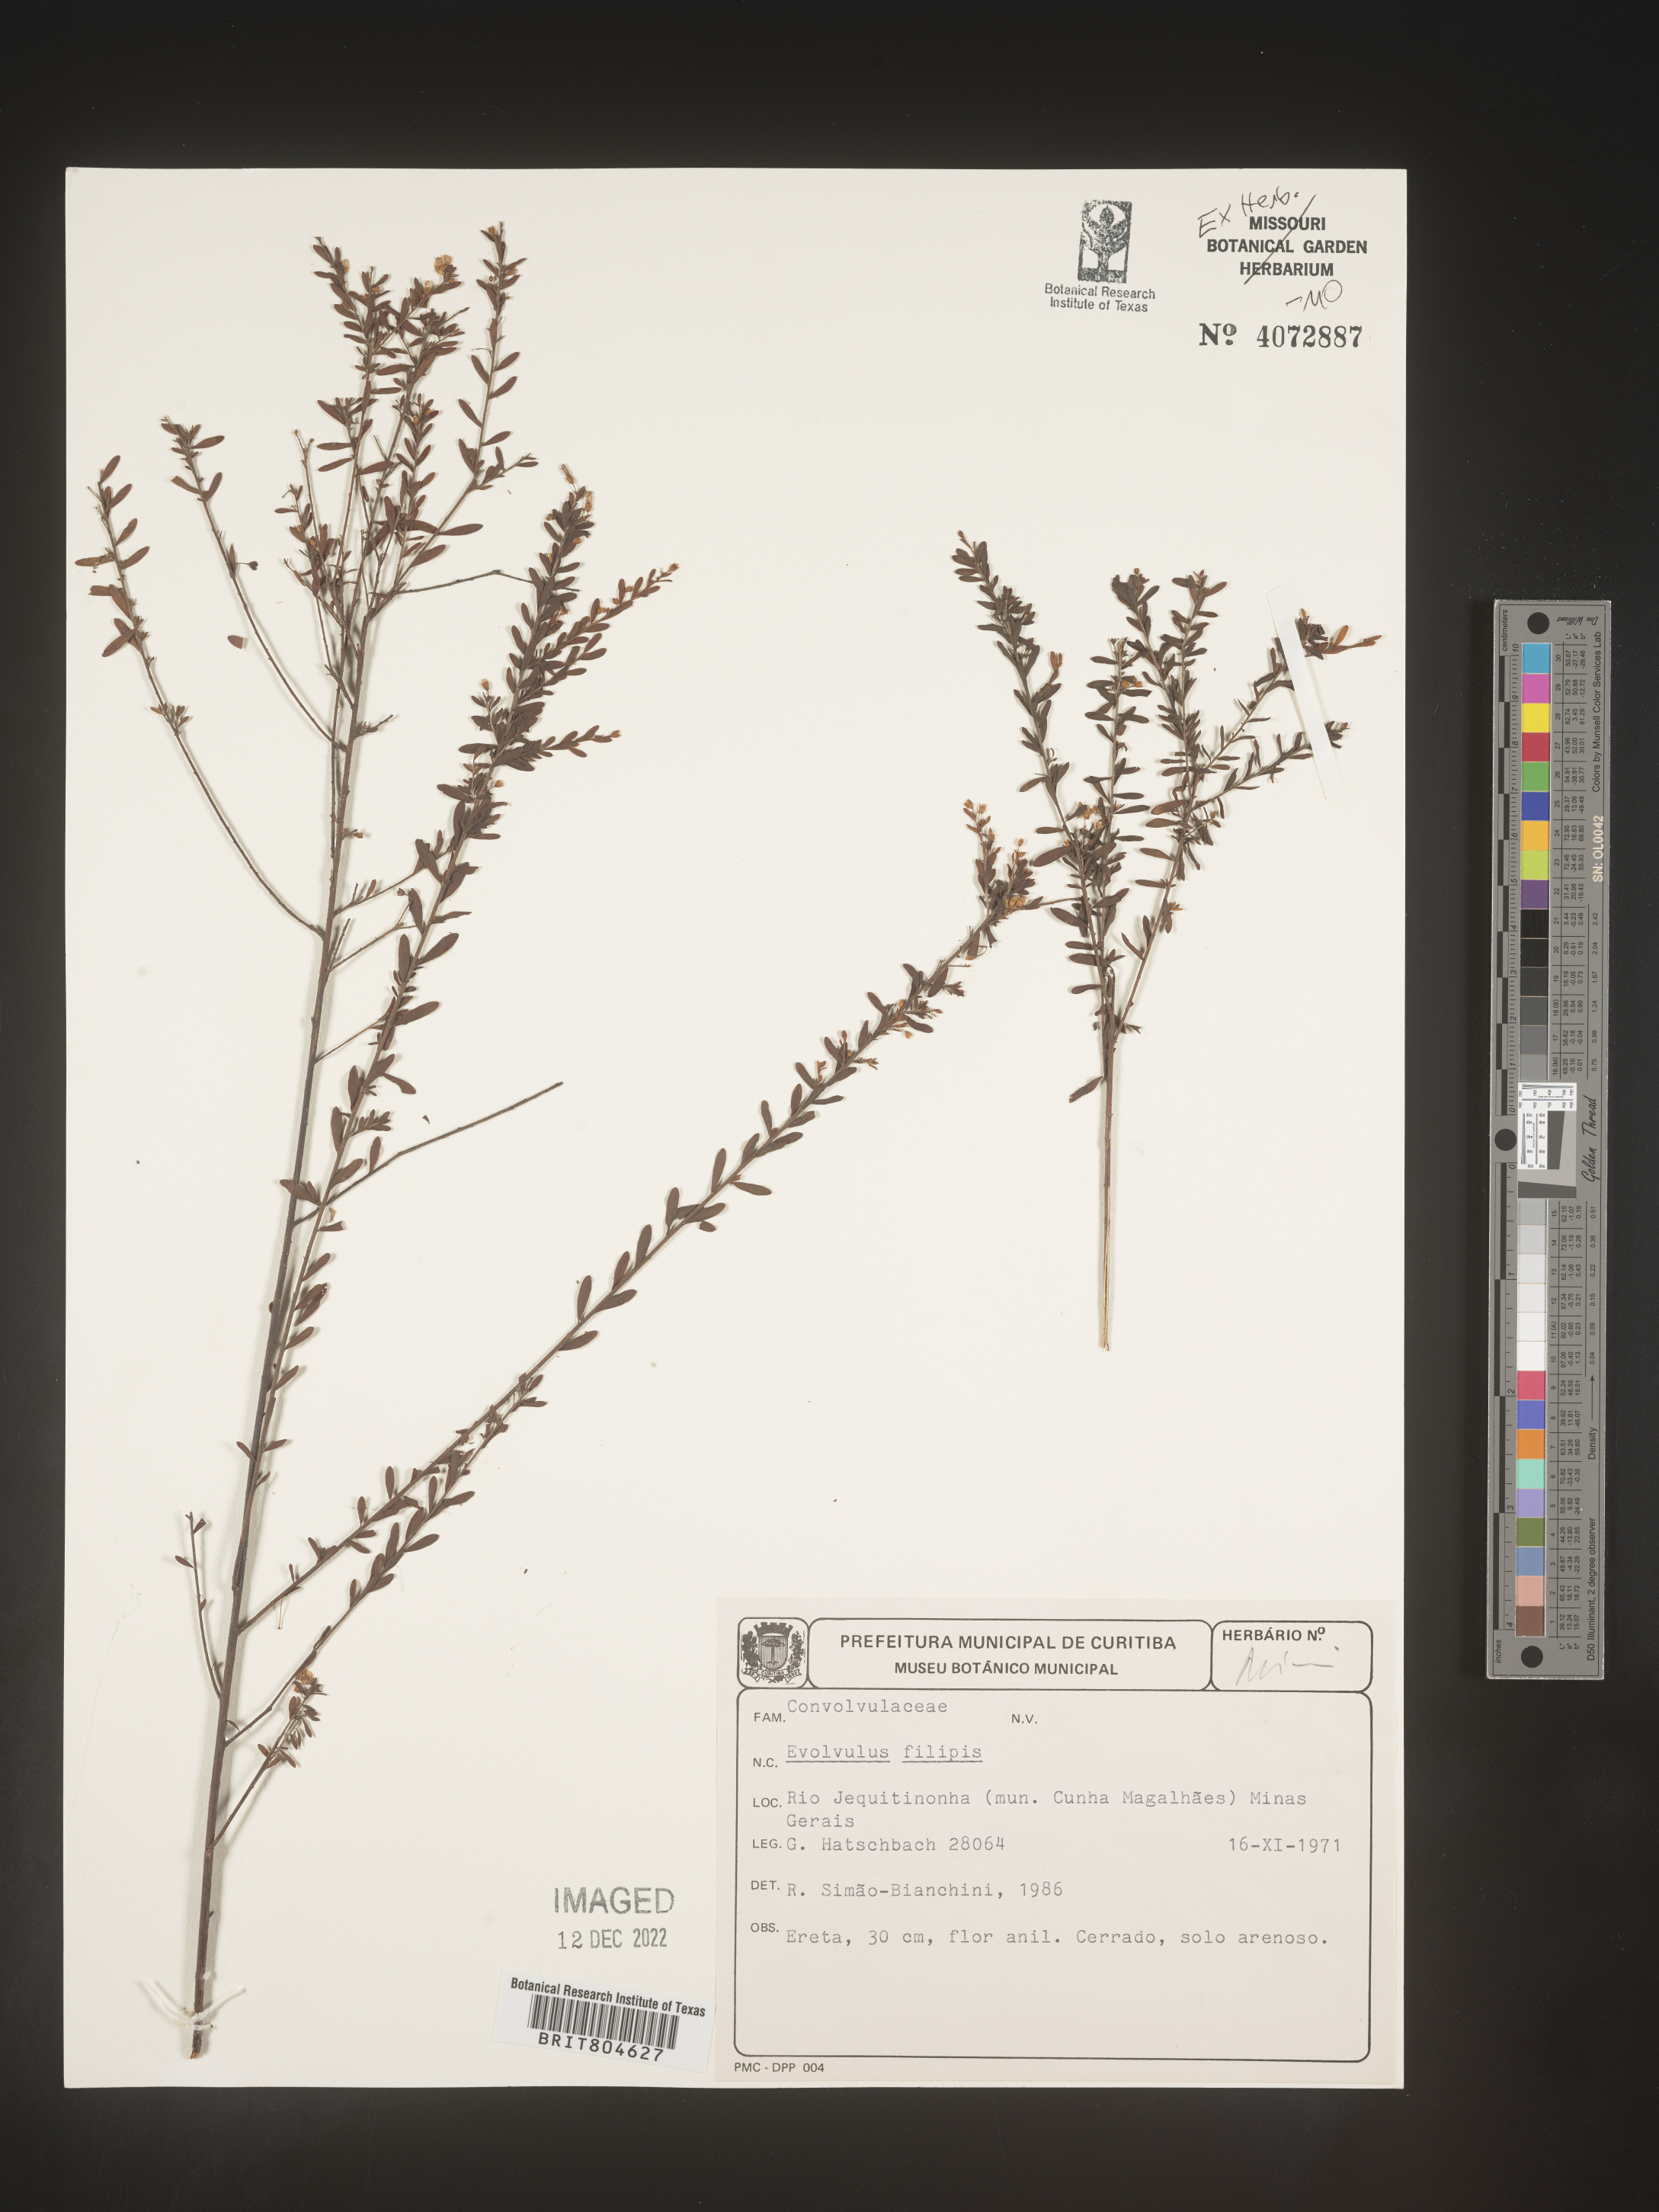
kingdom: Plantae
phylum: Tracheophyta
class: Magnoliopsida
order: Solanales
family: Convolvulaceae
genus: Evolvulus
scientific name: Evolvulus
